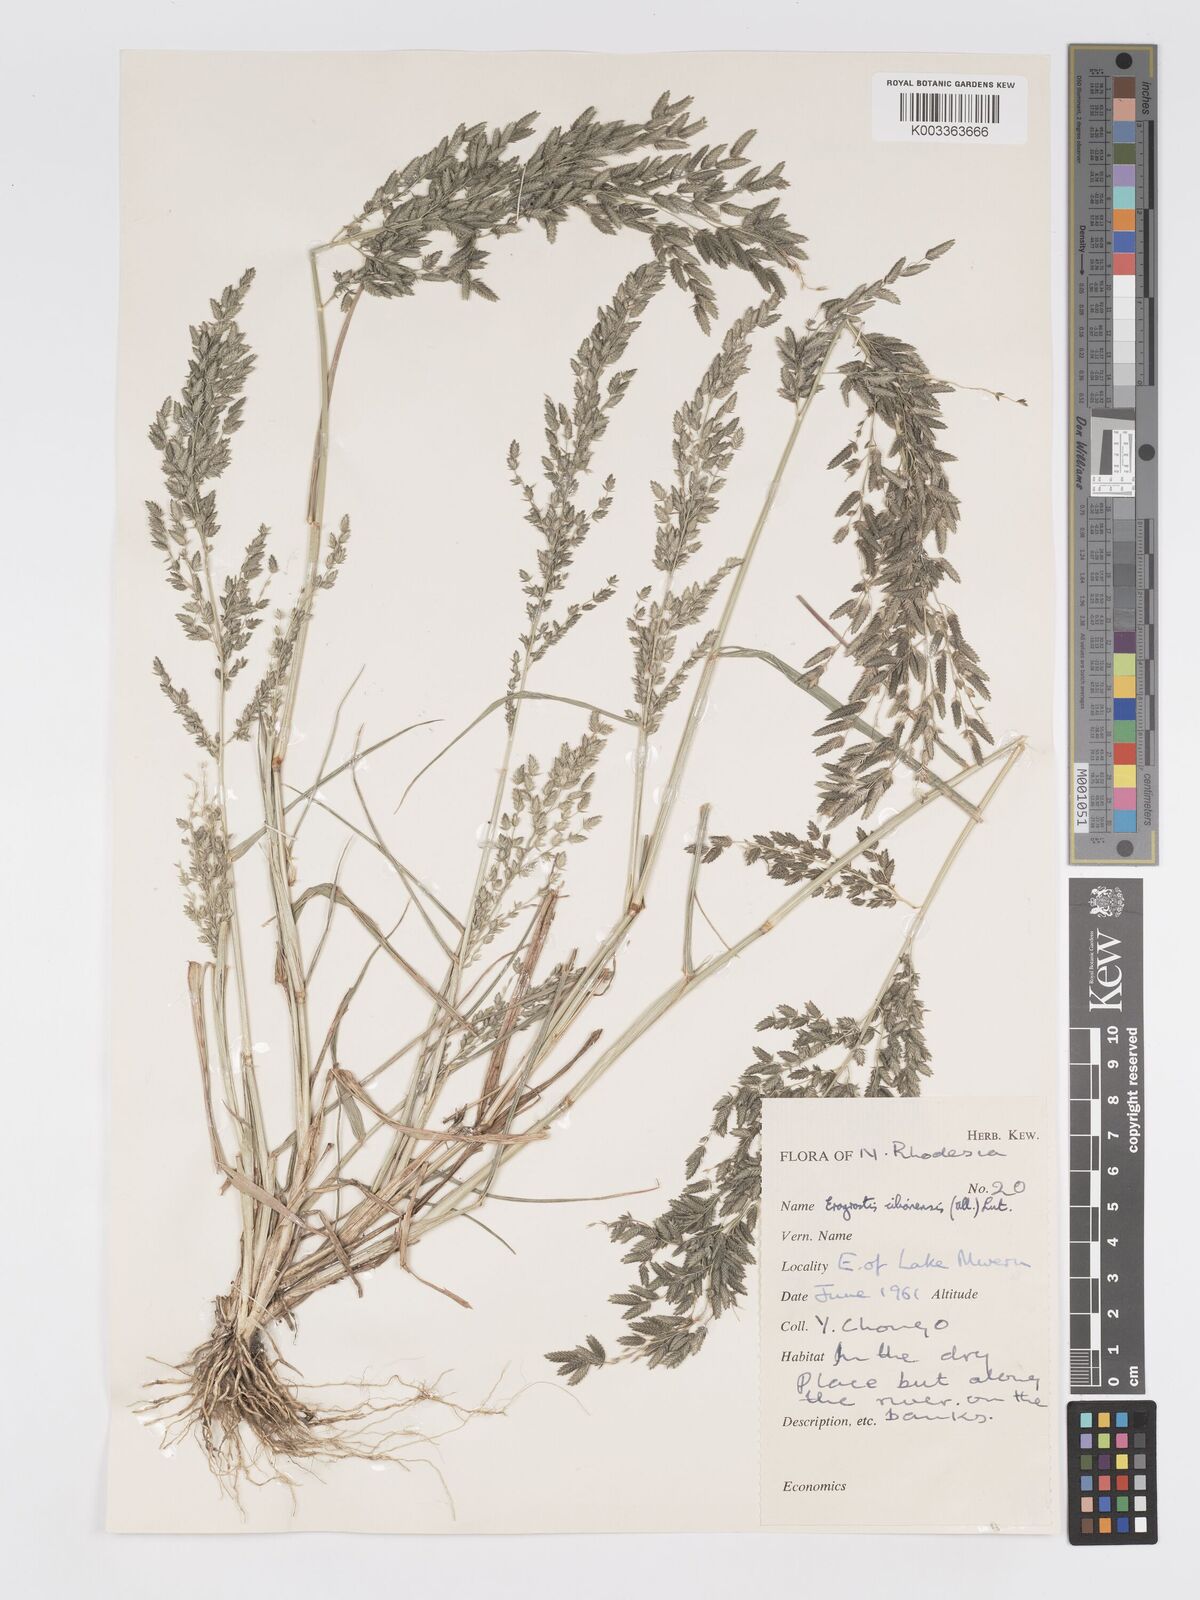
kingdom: Plantae
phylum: Tracheophyta
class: Liliopsida
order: Poales
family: Poaceae
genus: Eragrostis
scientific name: Eragrostis cilianensis
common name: Stinkgrass
